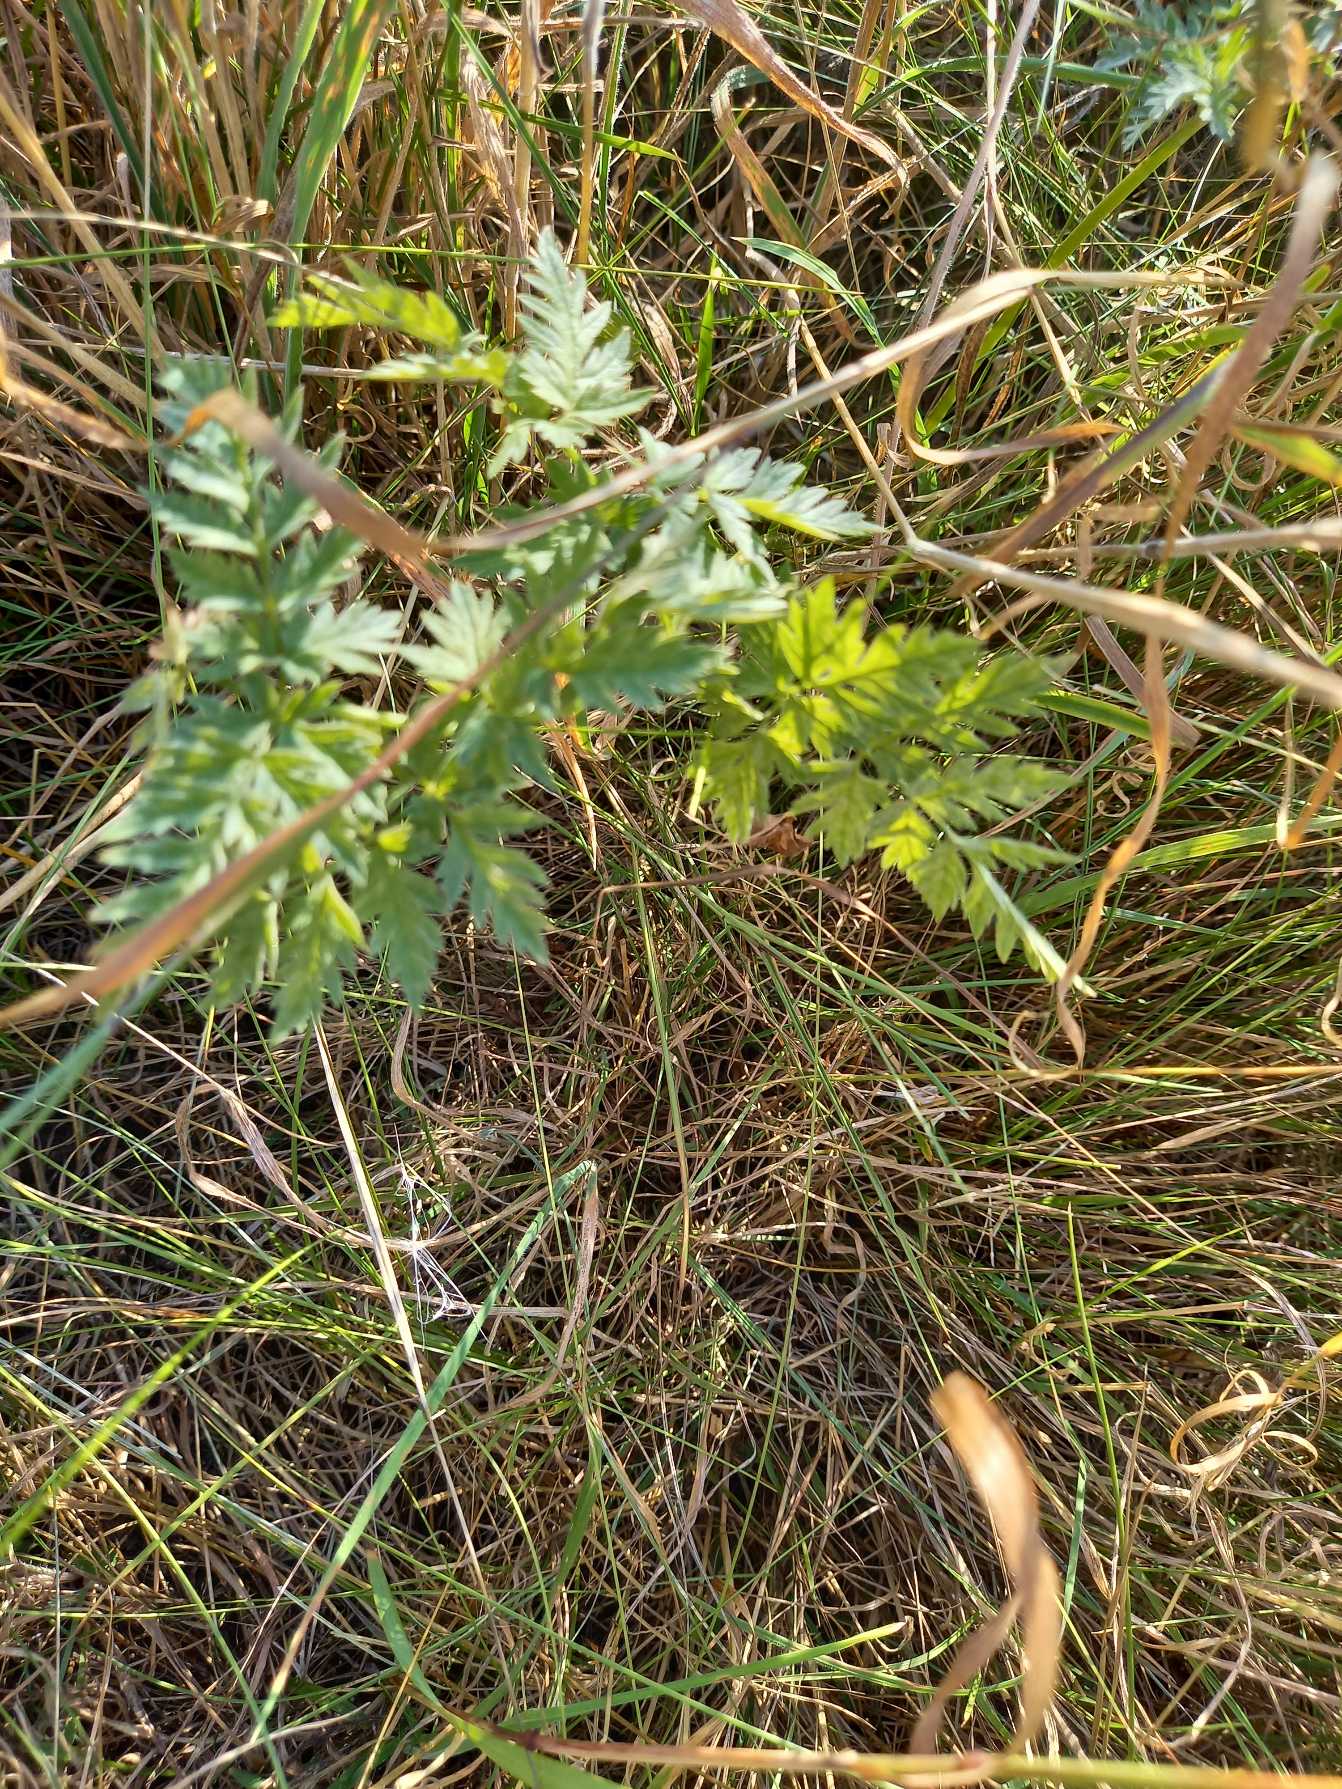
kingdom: Plantae
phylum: Tracheophyta
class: Magnoliopsida
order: Apiales
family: Apiaceae
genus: Anthriscus
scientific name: Anthriscus sylvestris
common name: Vild kørvel
